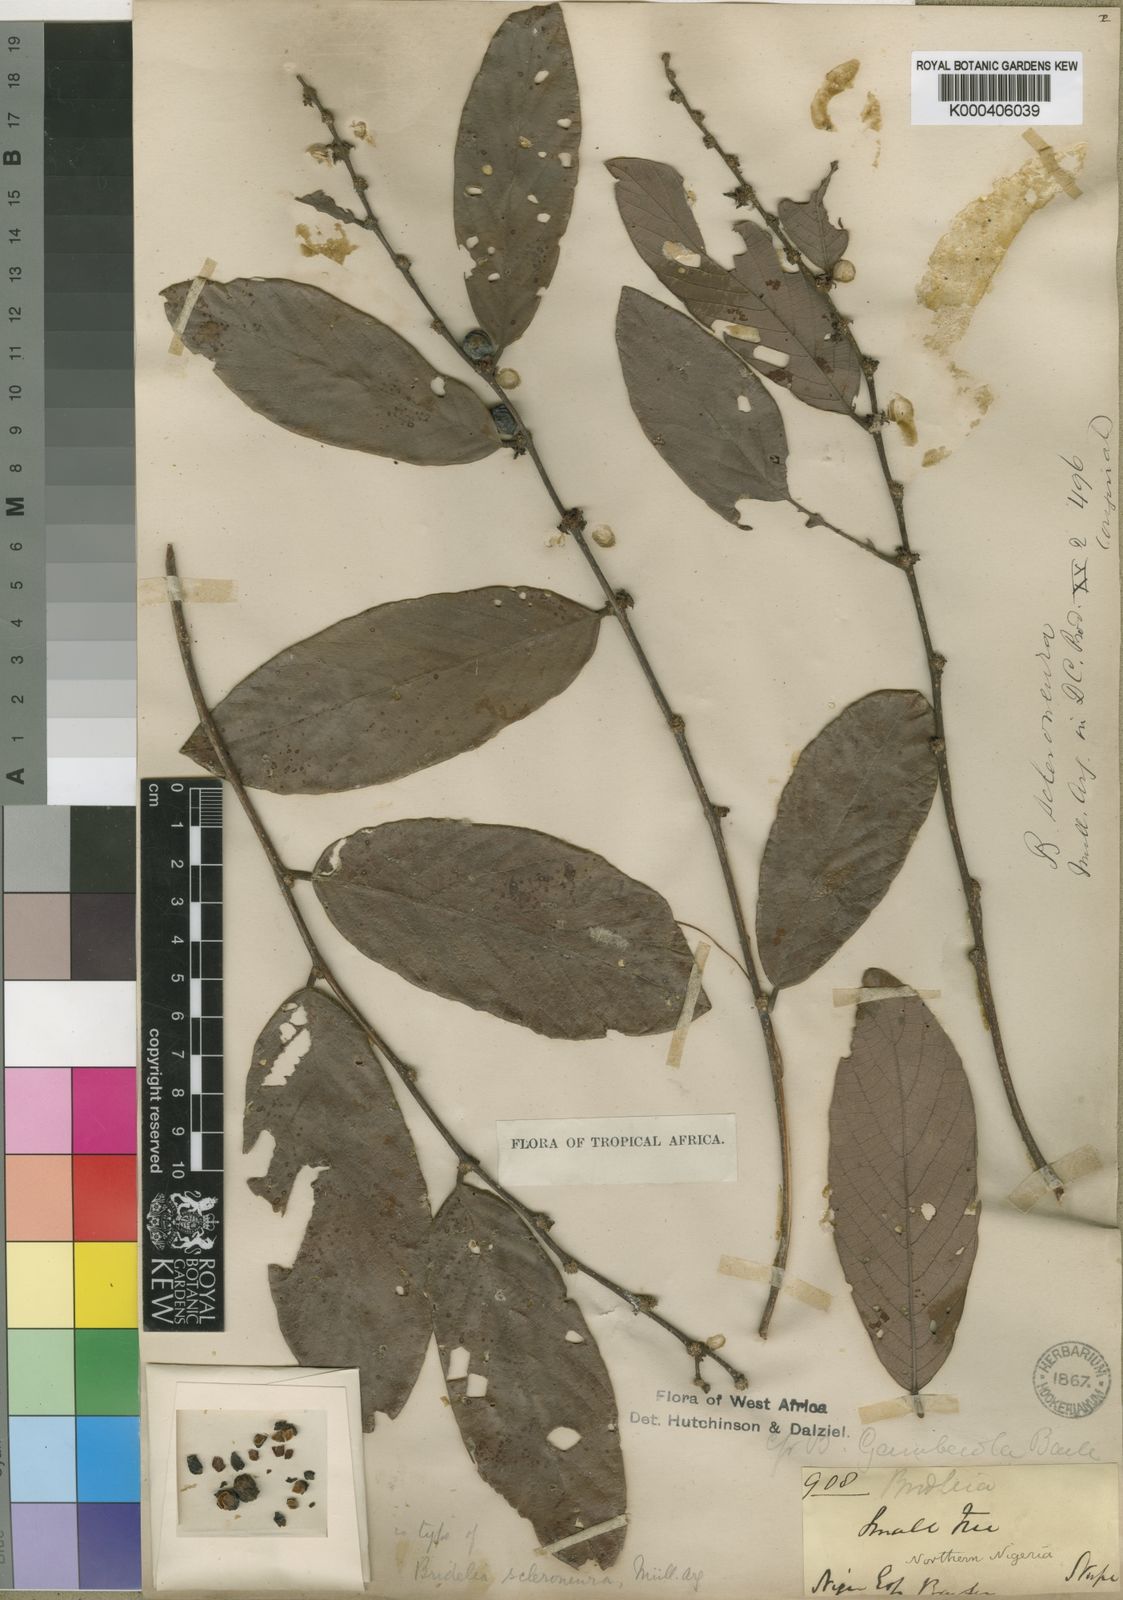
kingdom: Plantae
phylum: Tracheophyta
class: Magnoliopsida
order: Malpighiales
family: Phyllanthaceae
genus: Bridelia
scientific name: Bridelia
